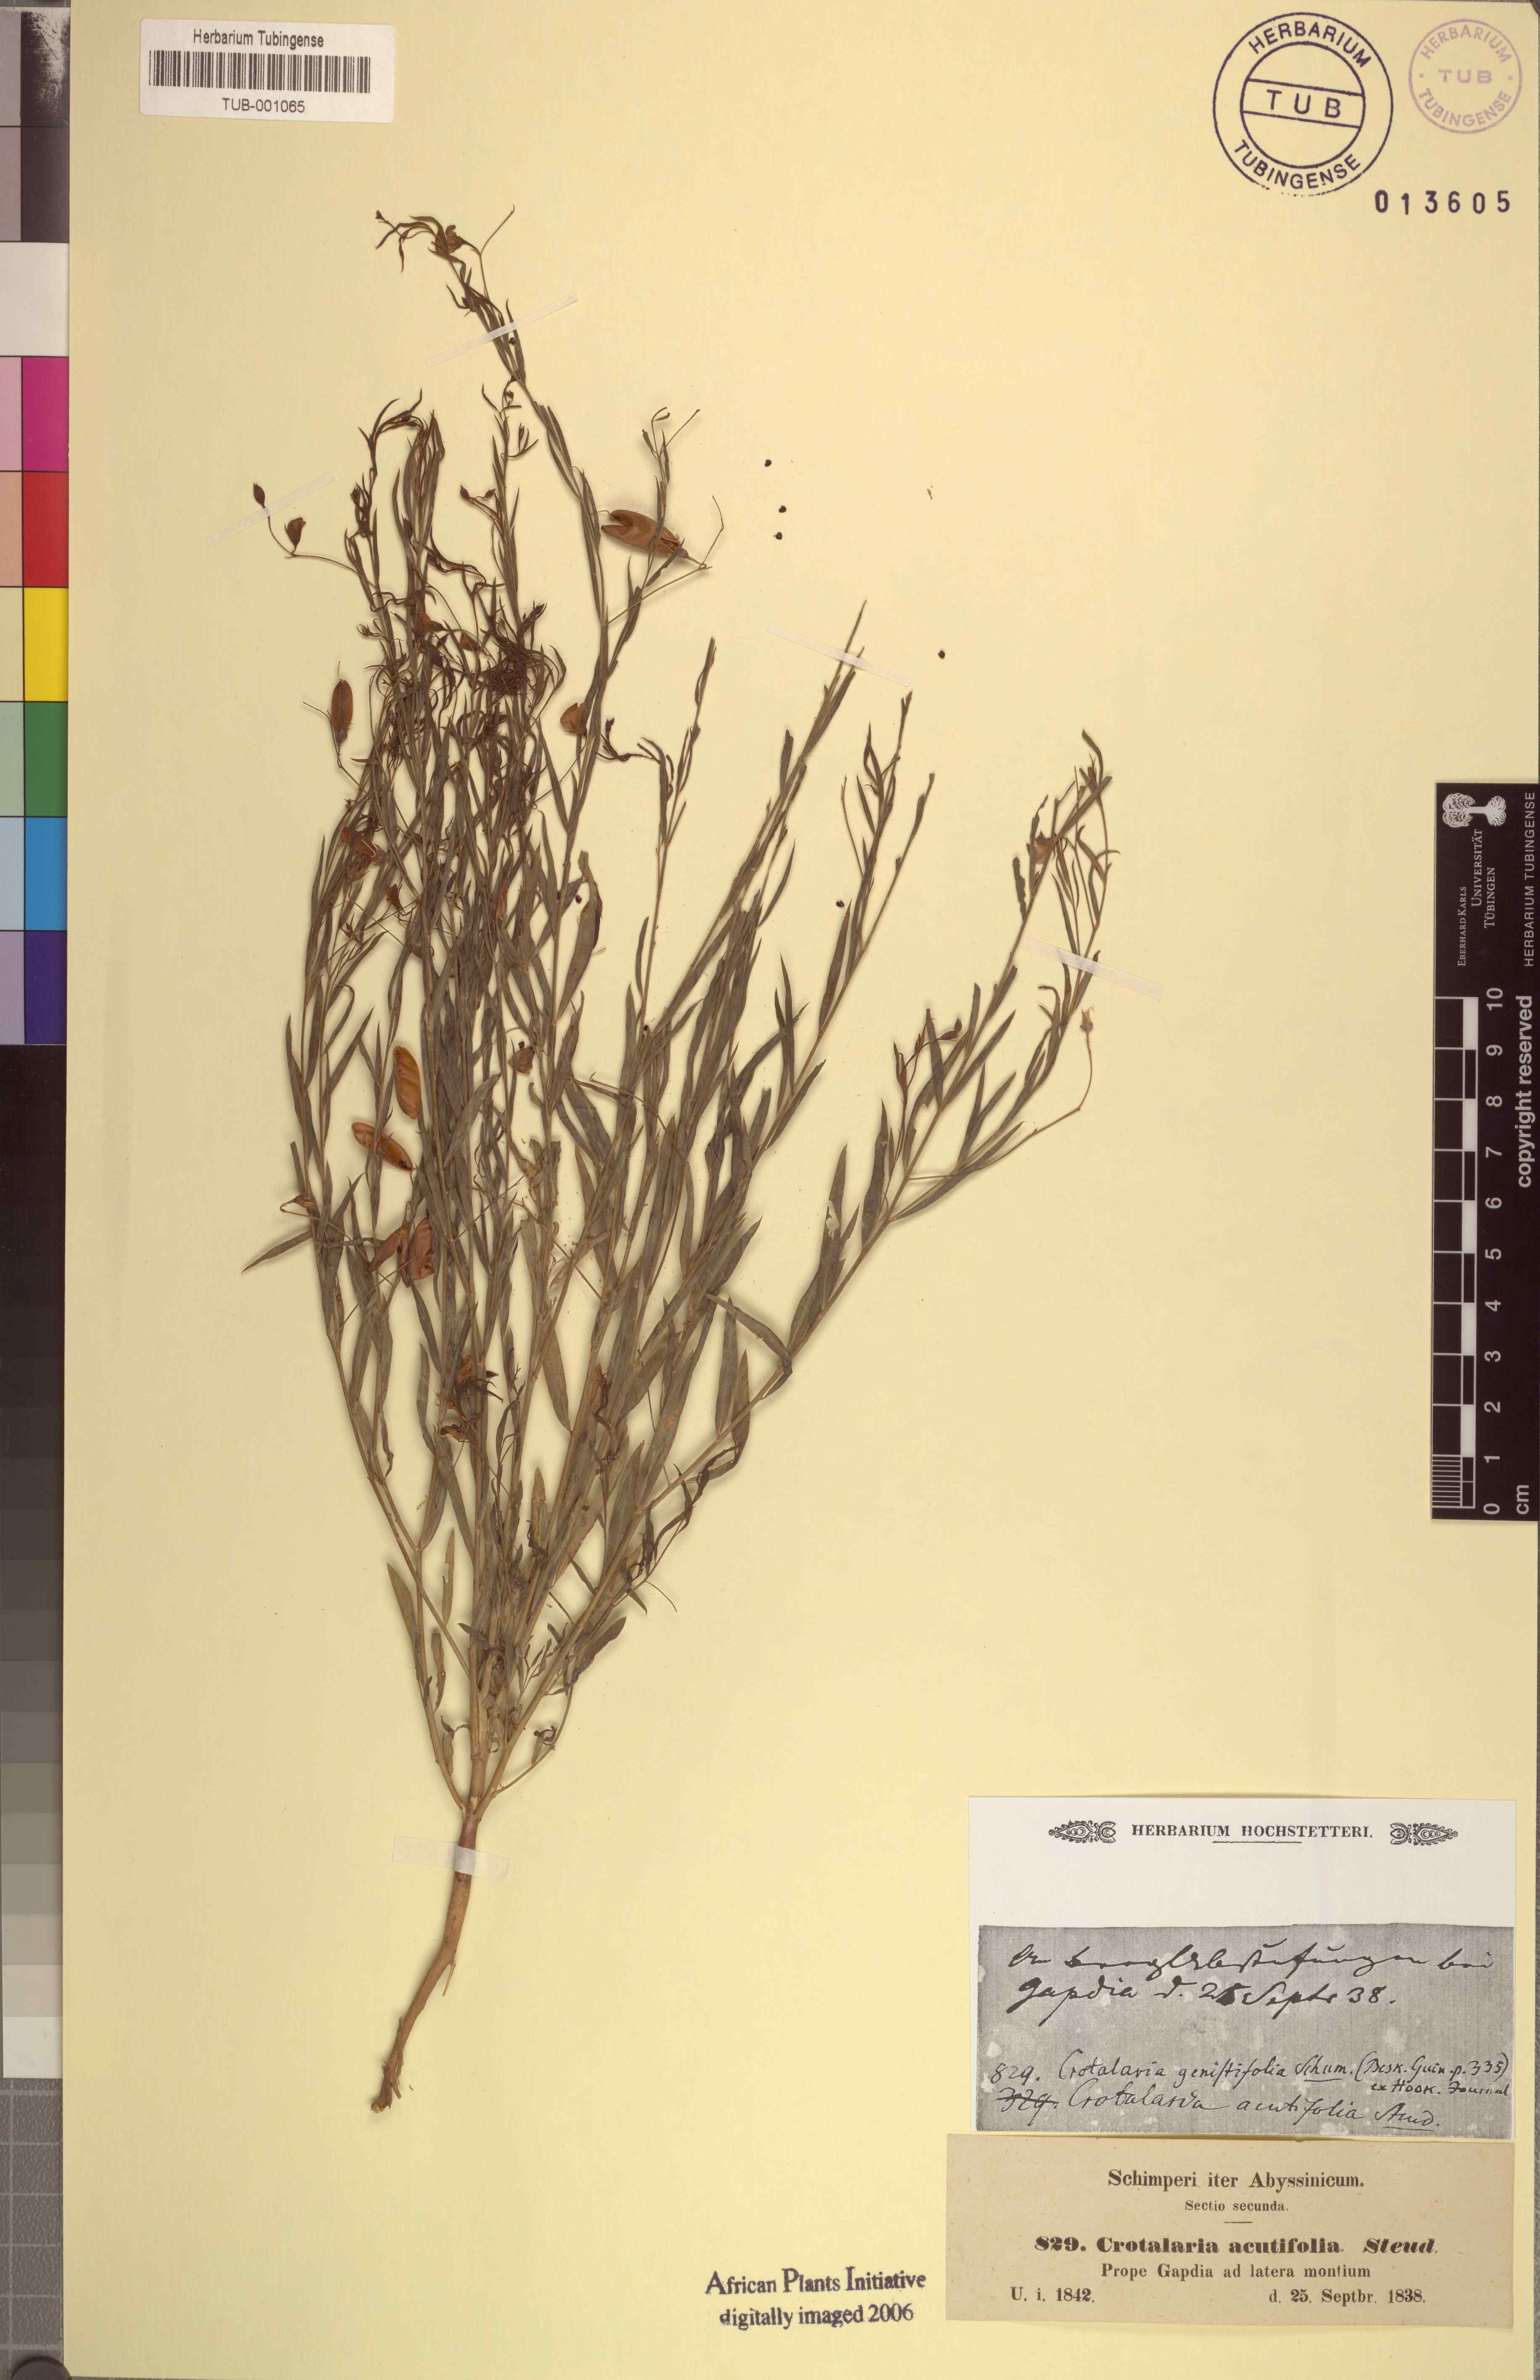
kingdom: Plantae
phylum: Tracheophyta
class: Magnoliopsida
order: Fabales
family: Fabaceae
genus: Crotalaria
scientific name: Crotalaria glauca
